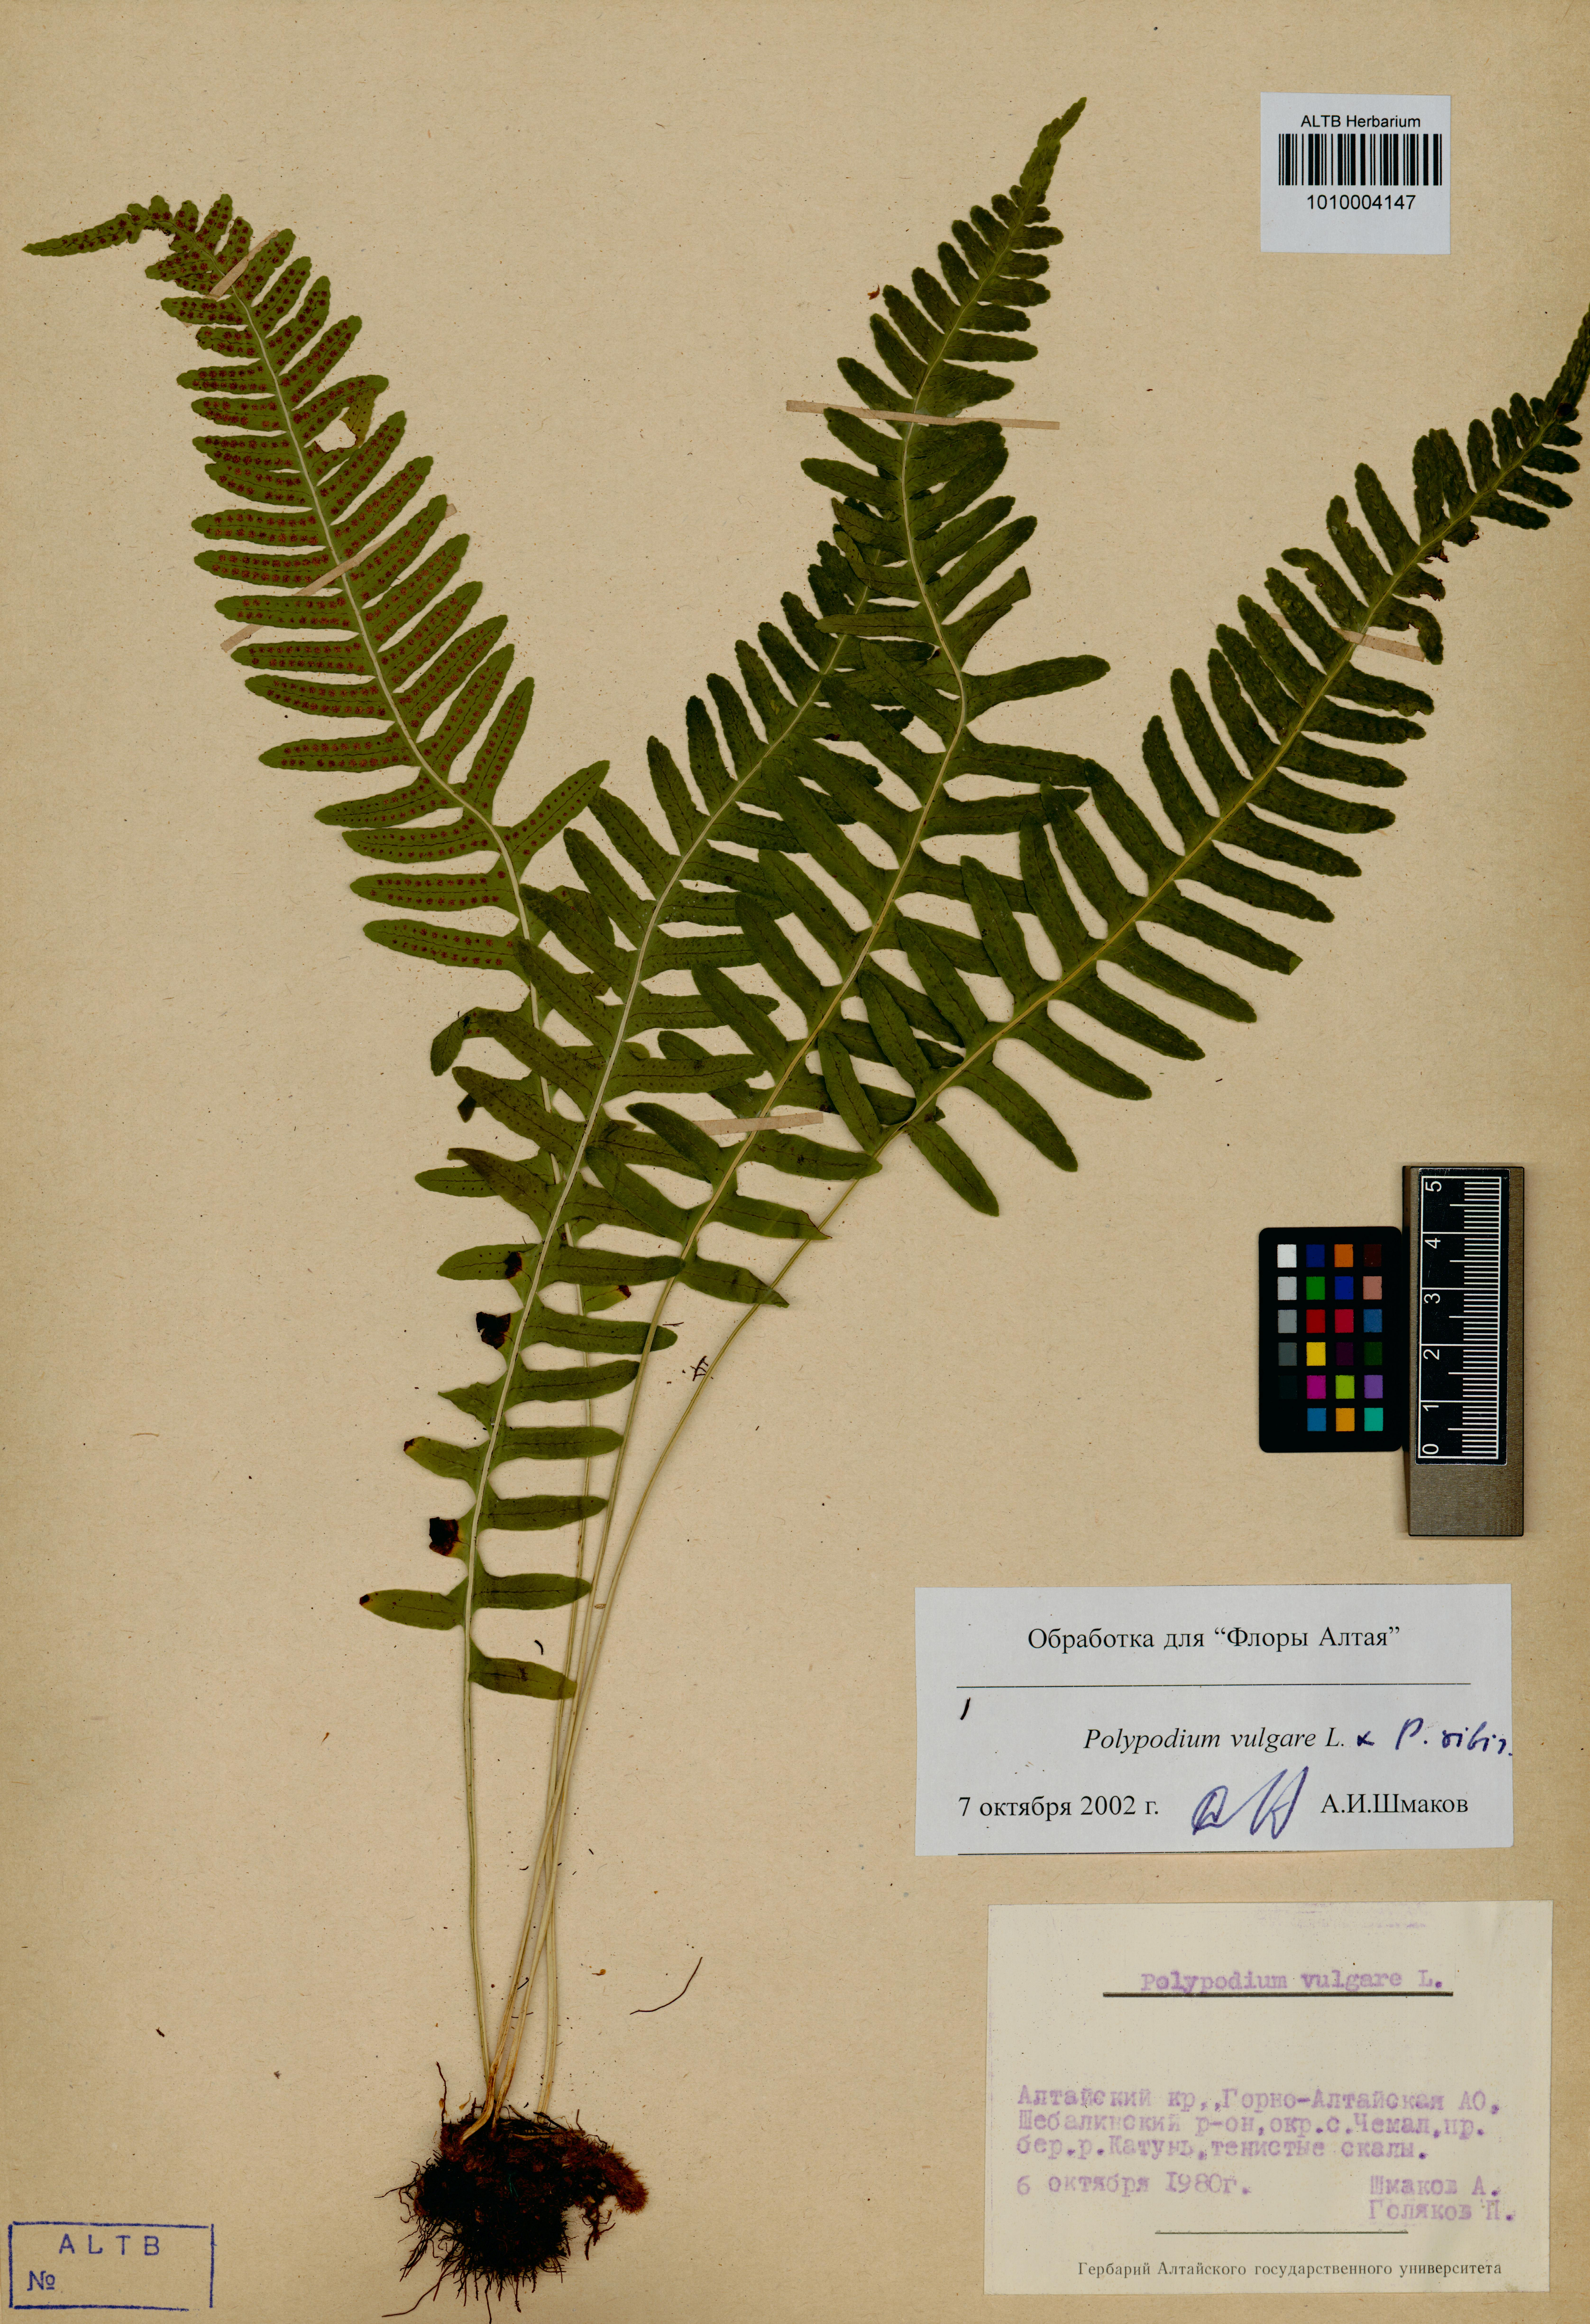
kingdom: Plantae
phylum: Tracheophyta
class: Polypodiopsida
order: Polypodiales
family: Polypodiaceae
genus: Polypodium
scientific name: Polypodium vulgare
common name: Common polypody
